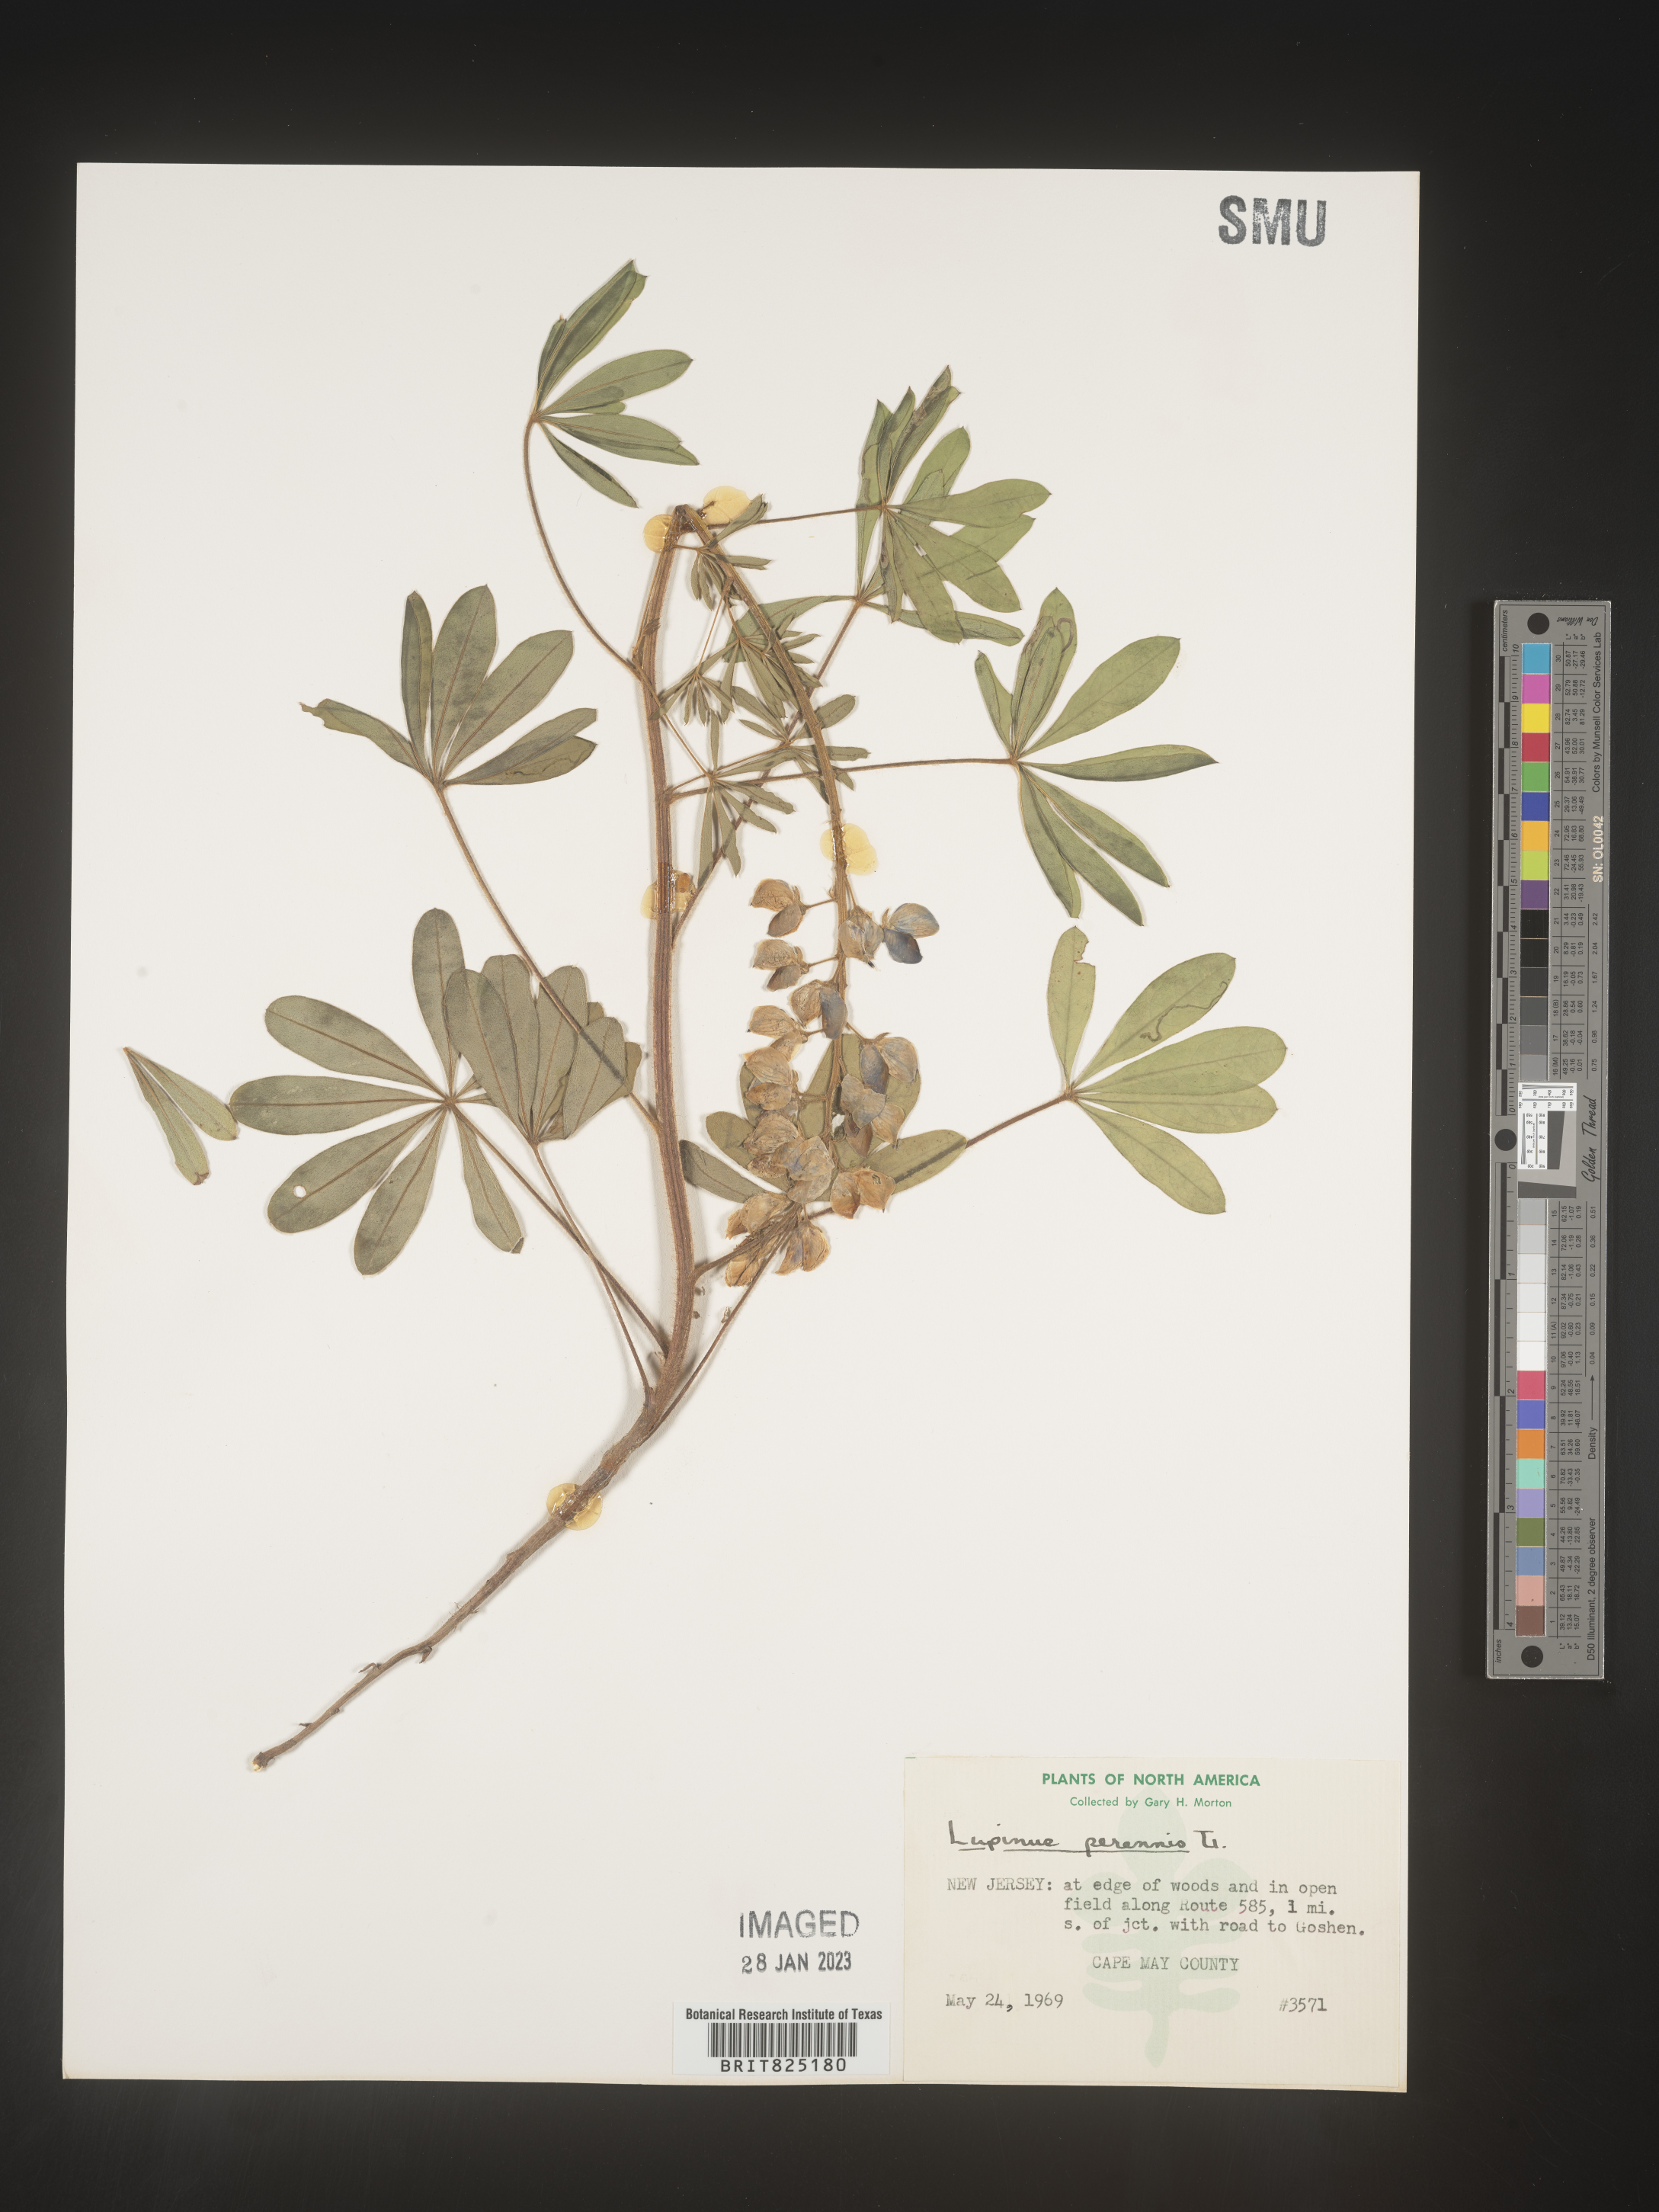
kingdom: Plantae
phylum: Tracheophyta
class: Magnoliopsida
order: Fabales
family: Fabaceae
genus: Lupinus
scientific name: Lupinus perennis
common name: Sundial lupine
